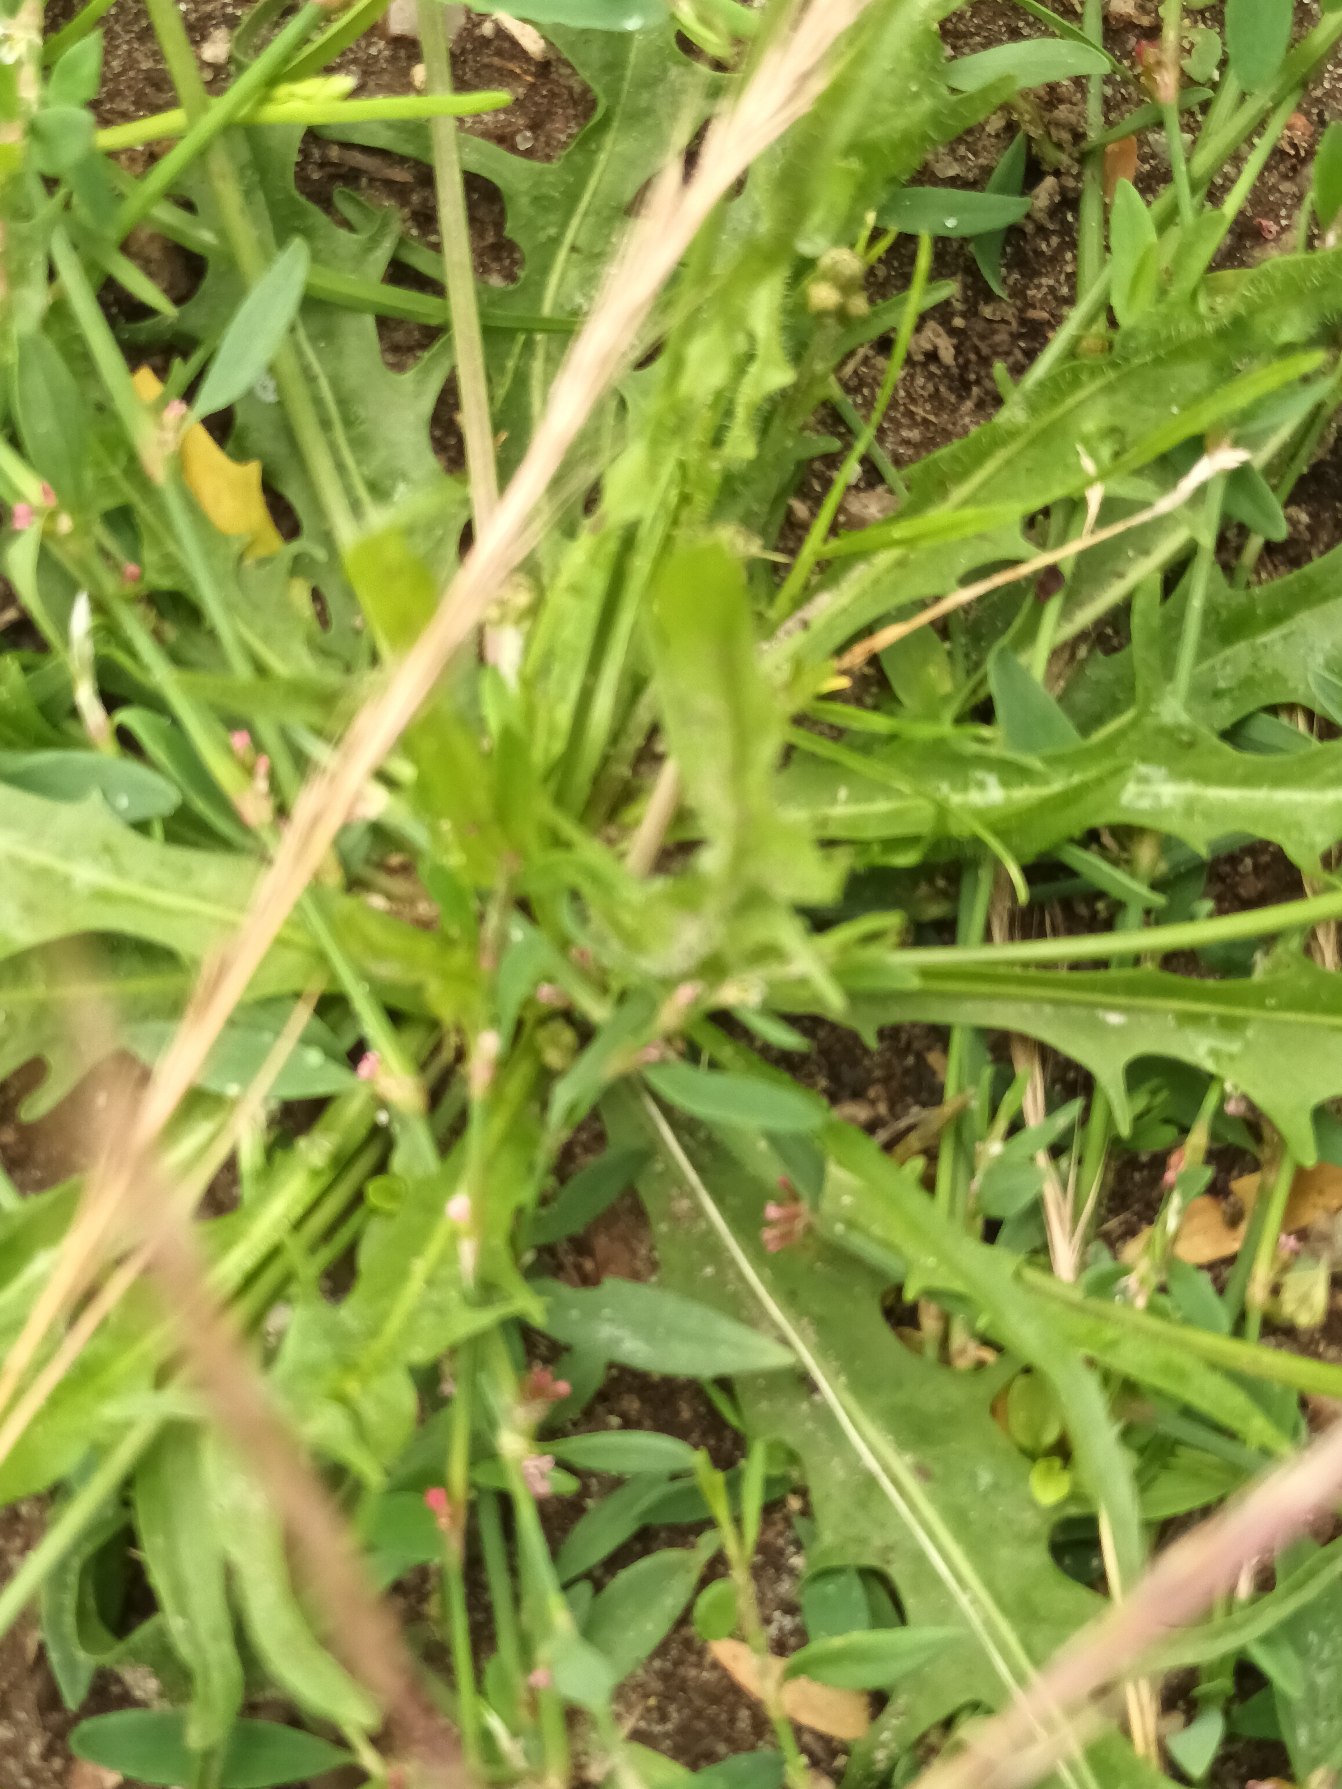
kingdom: Plantae
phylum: Tracheophyta
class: Magnoliopsida
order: Asterales
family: Asteraceae
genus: Scorzoneroides
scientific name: Scorzoneroides autumnalis
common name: Høst-borst
